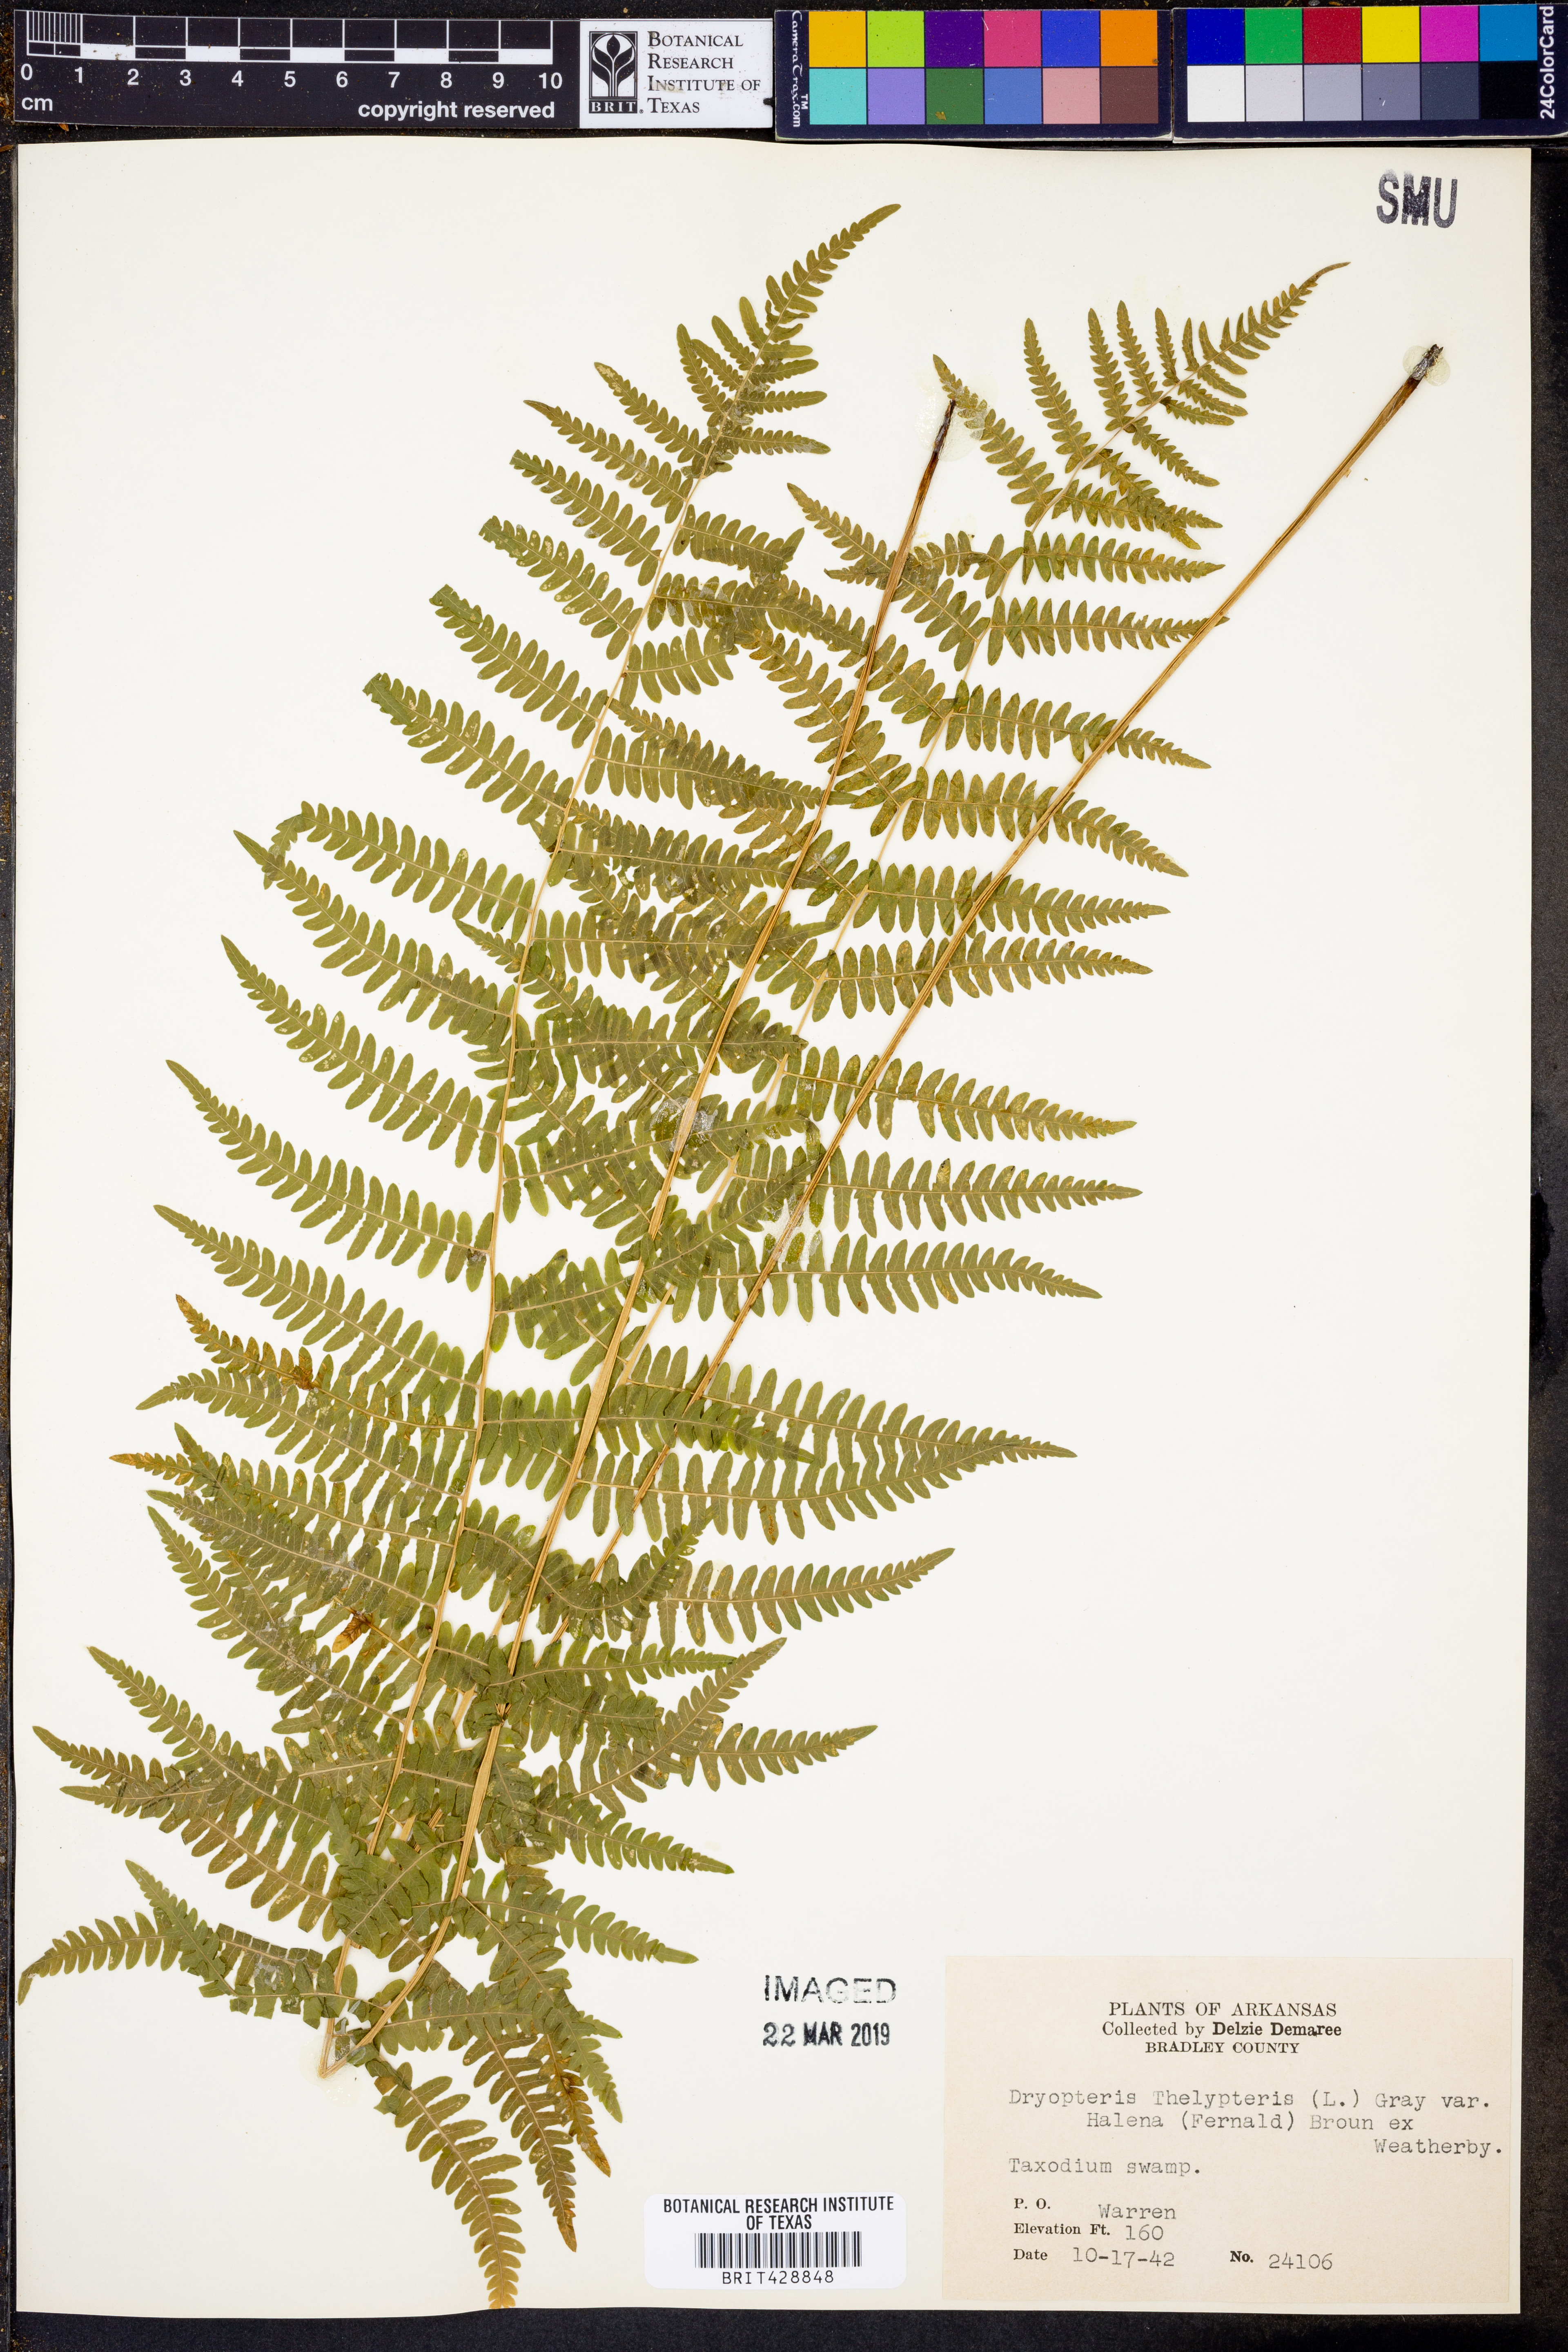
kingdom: Plantae
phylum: Tracheophyta
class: Polypodiopsida
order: Polypodiales
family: Thelypteridaceae
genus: Thelypteris
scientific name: Thelypteris palustris
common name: Marsh fern
